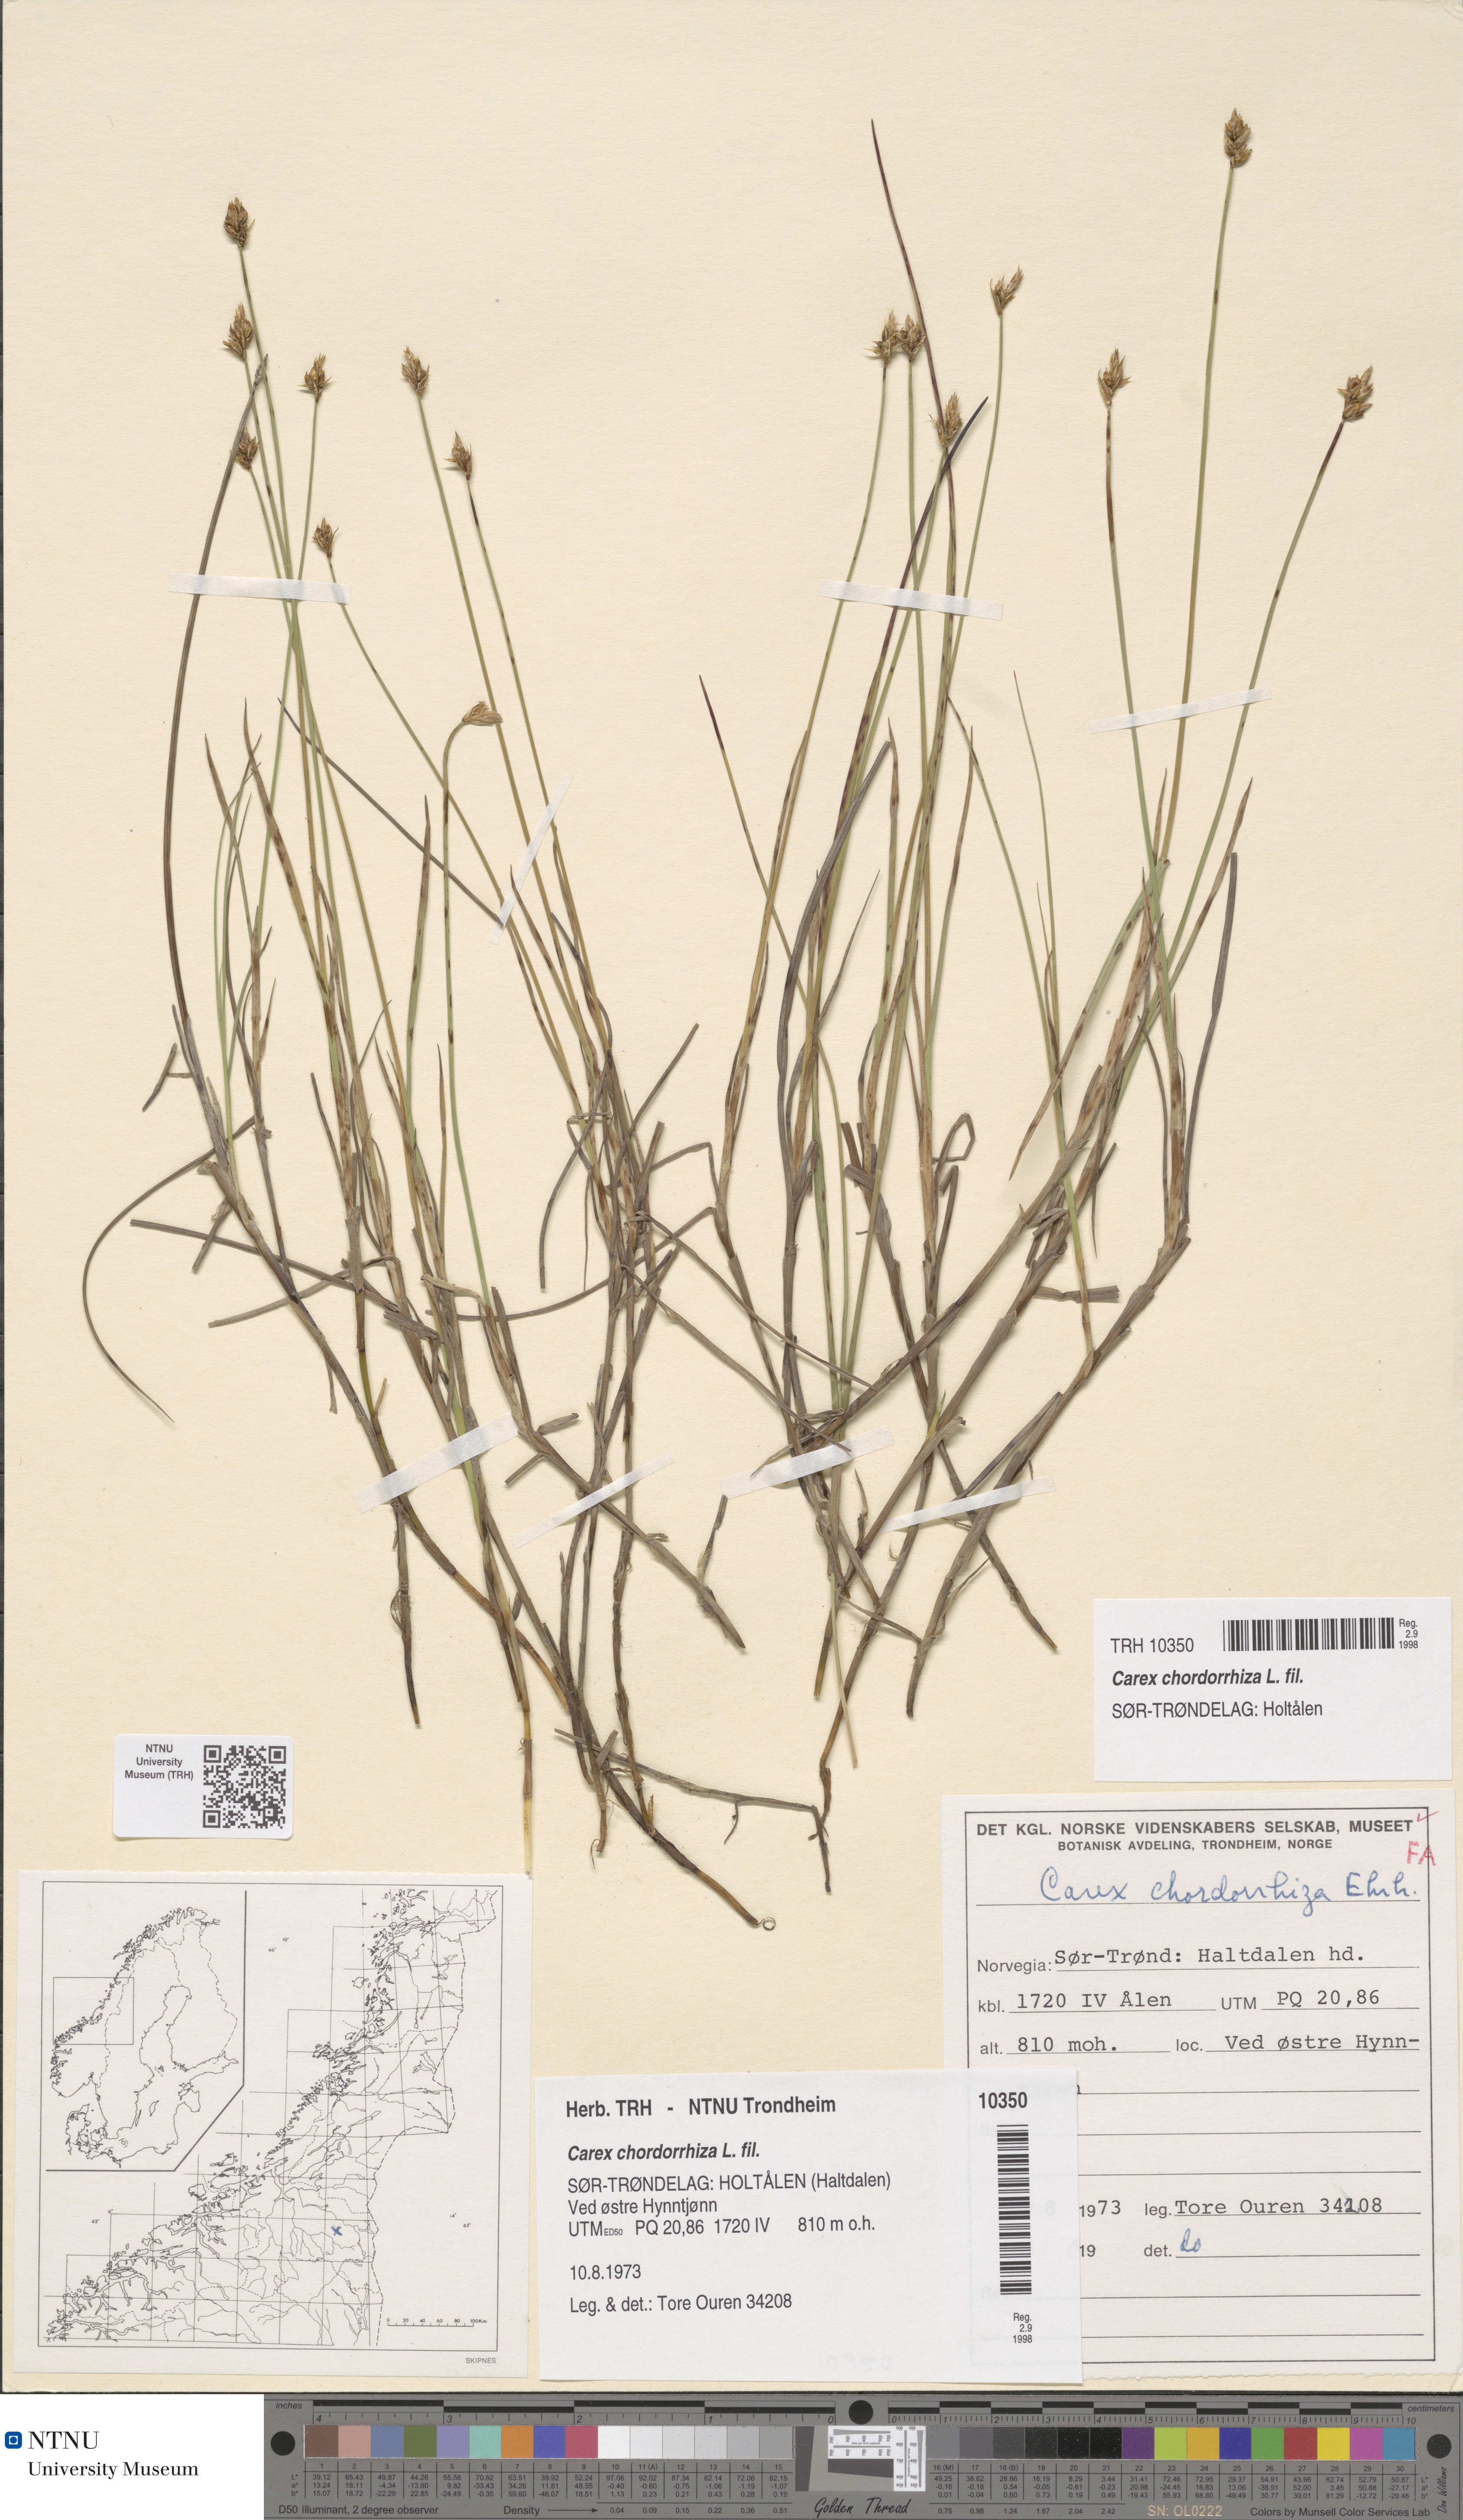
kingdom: Plantae
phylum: Tracheophyta
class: Liliopsida
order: Poales
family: Cyperaceae
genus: Carex
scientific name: Carex chordorrhiza
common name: String sedge
